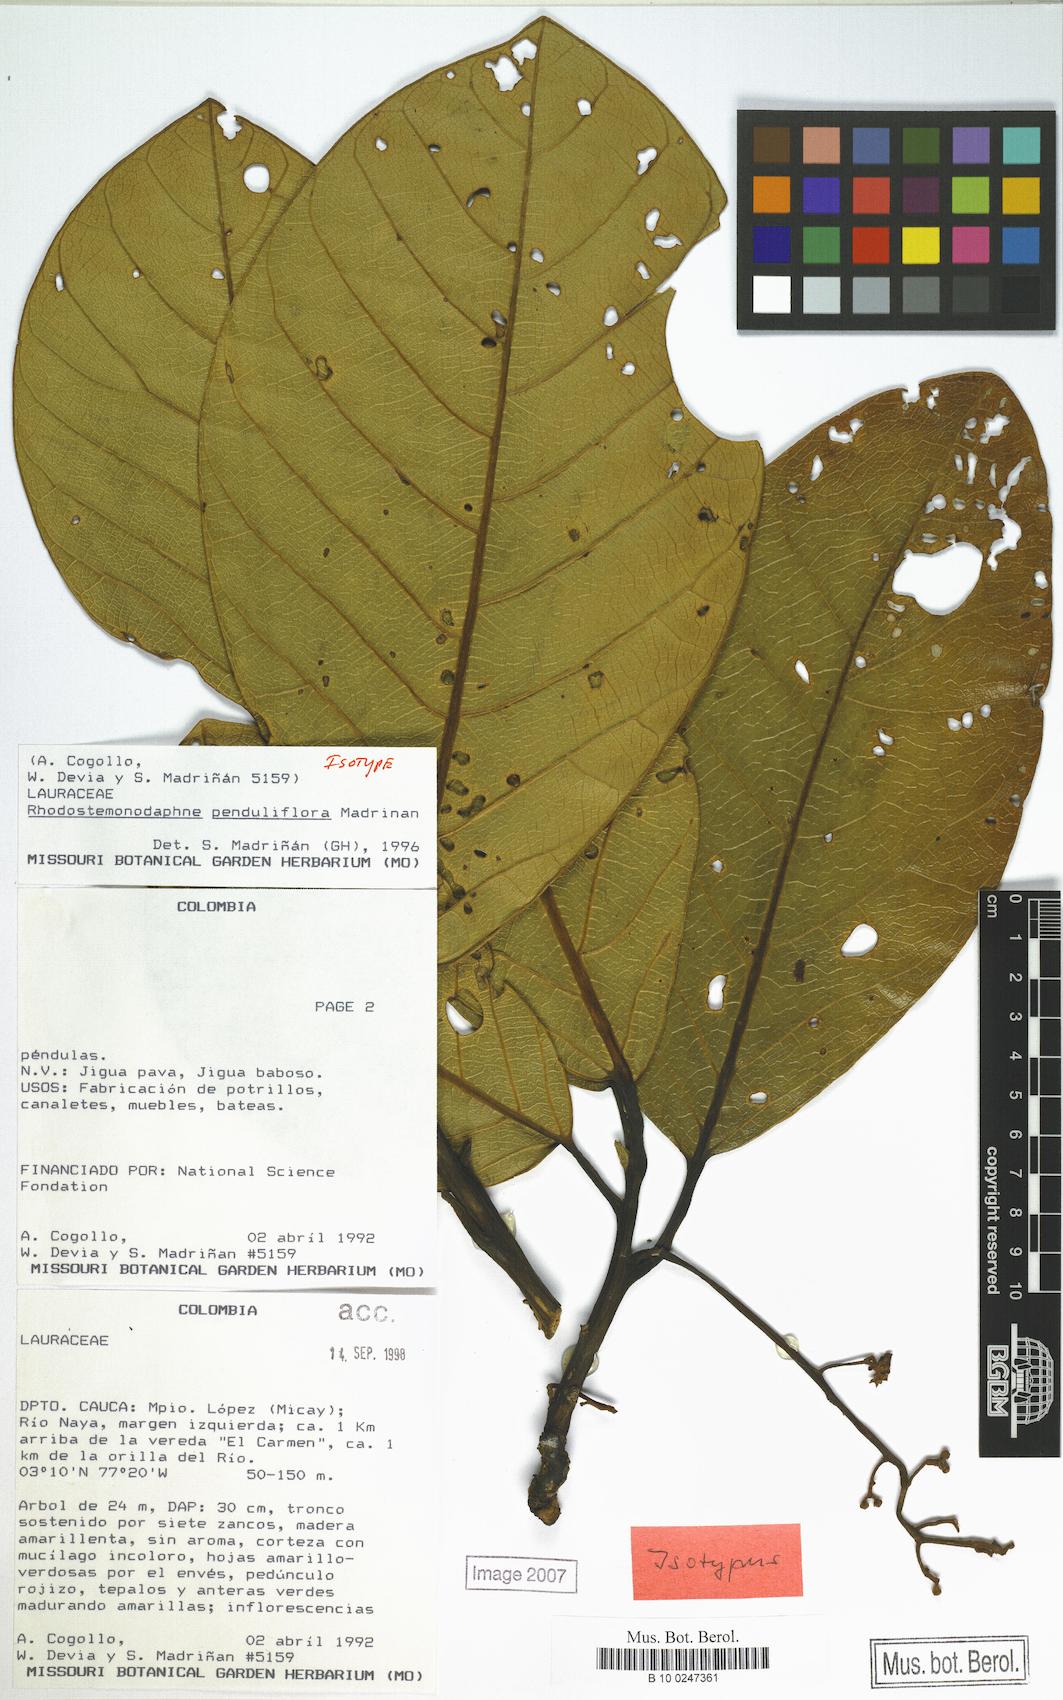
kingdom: Plantae
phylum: Tracheophyta
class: Magnoliopsida
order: Laurales
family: Lauraceae
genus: Rhodostemonodaphne
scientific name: Rhodostemonodaphne penduliflora
